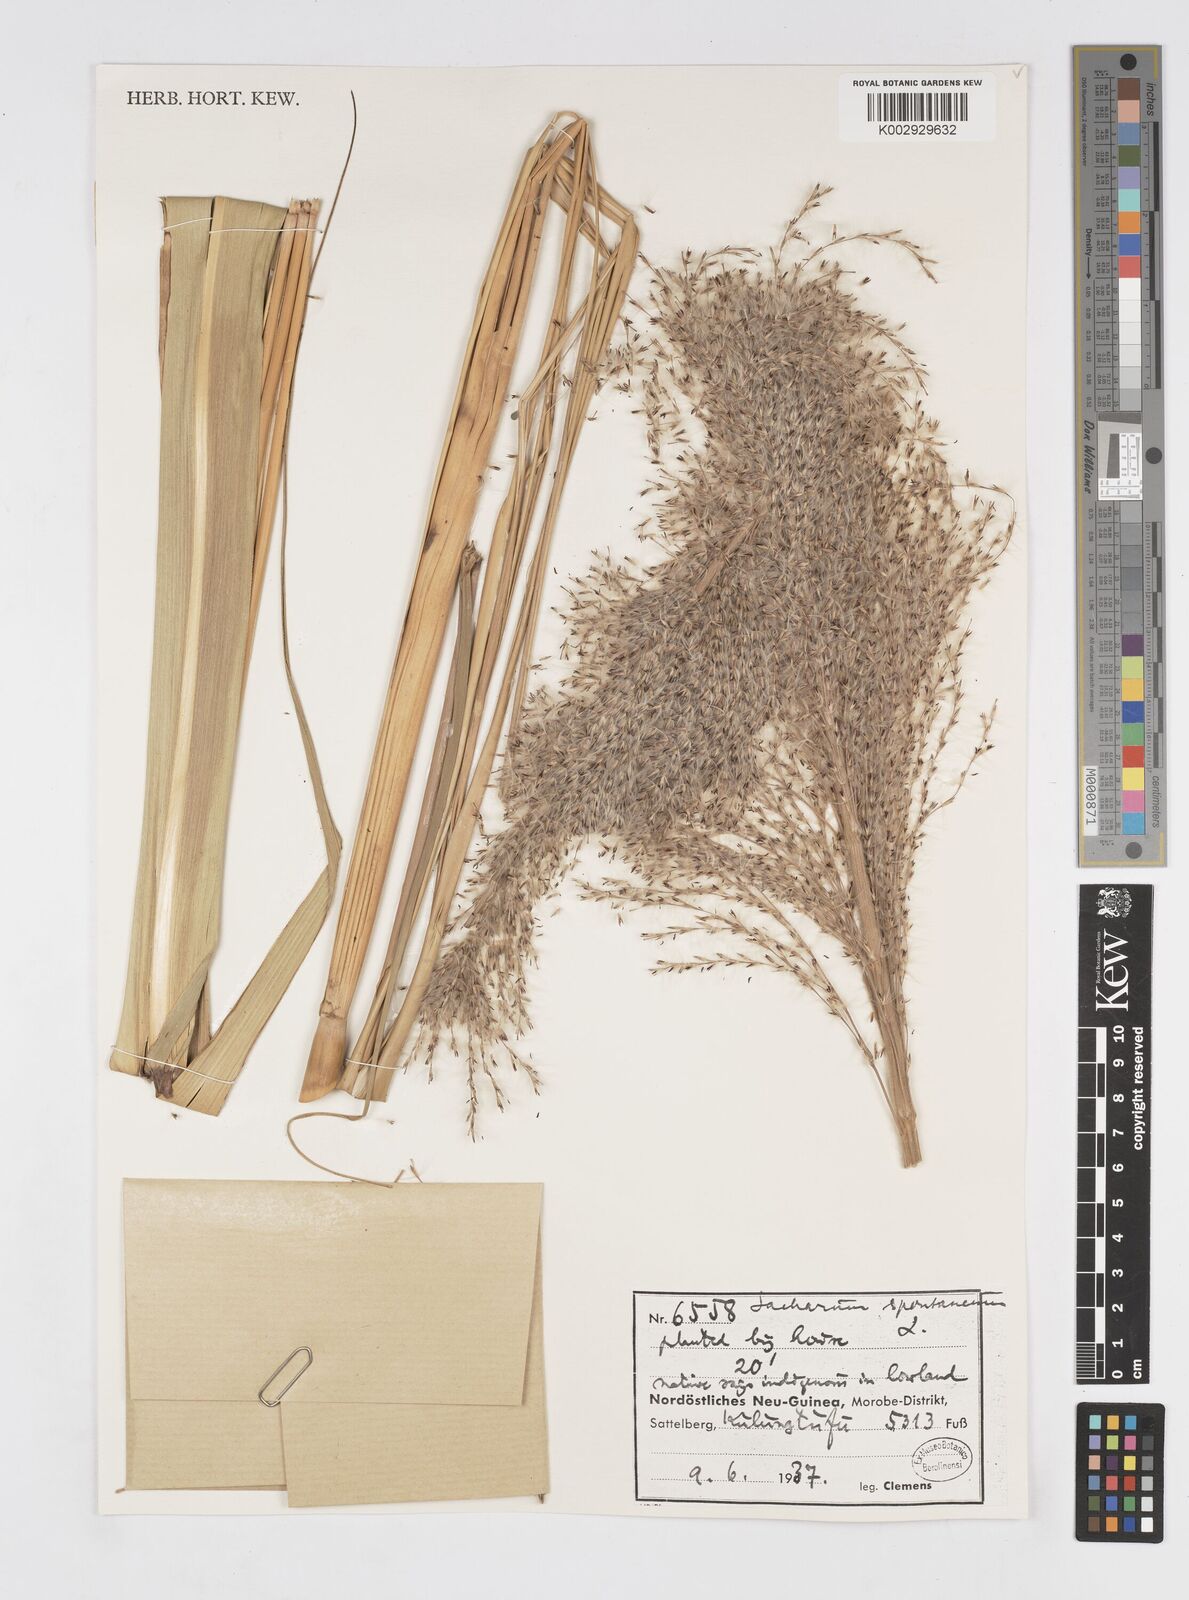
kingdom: Plantae
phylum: Tracheophyta
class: Liliopsida
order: Poales
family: Poaceae
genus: Saccharum
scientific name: Saccharum spontaneum
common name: Wild sugarcane
